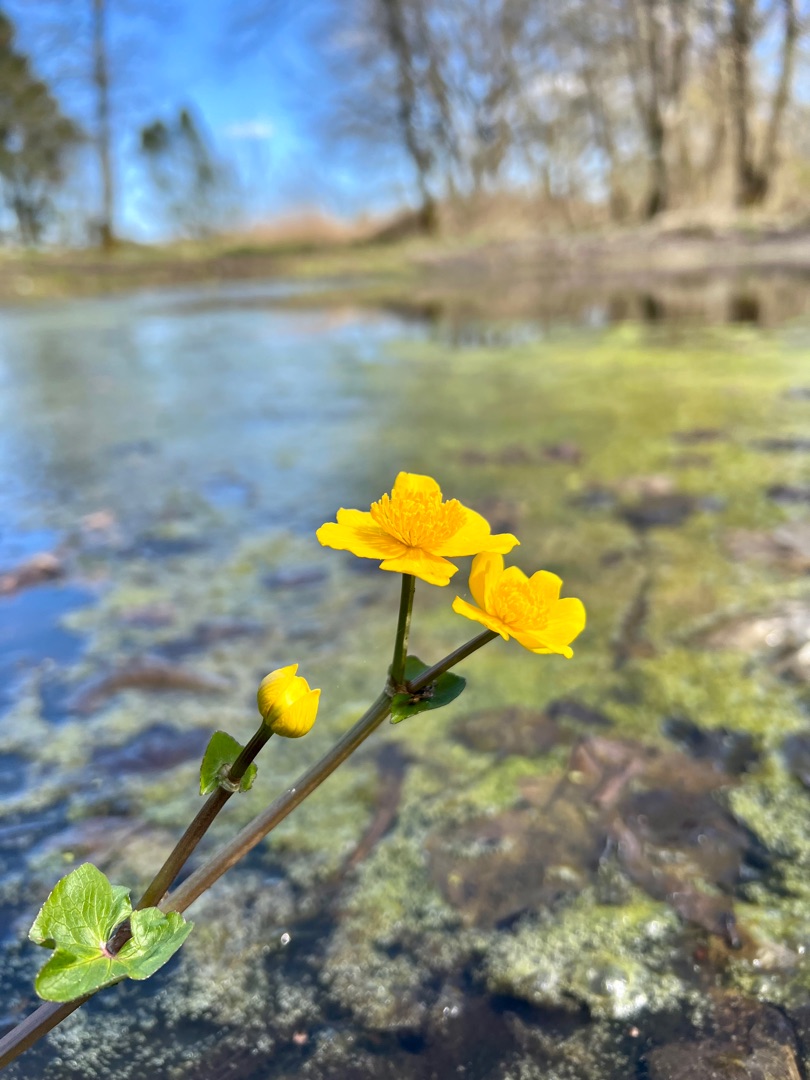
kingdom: Plantae
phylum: Tracheophyta
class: Magnoliopsida
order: Ranunculales
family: Ranunculaceae
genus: Caltha
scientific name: Caltha palustris
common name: Eng-kabbeleje
